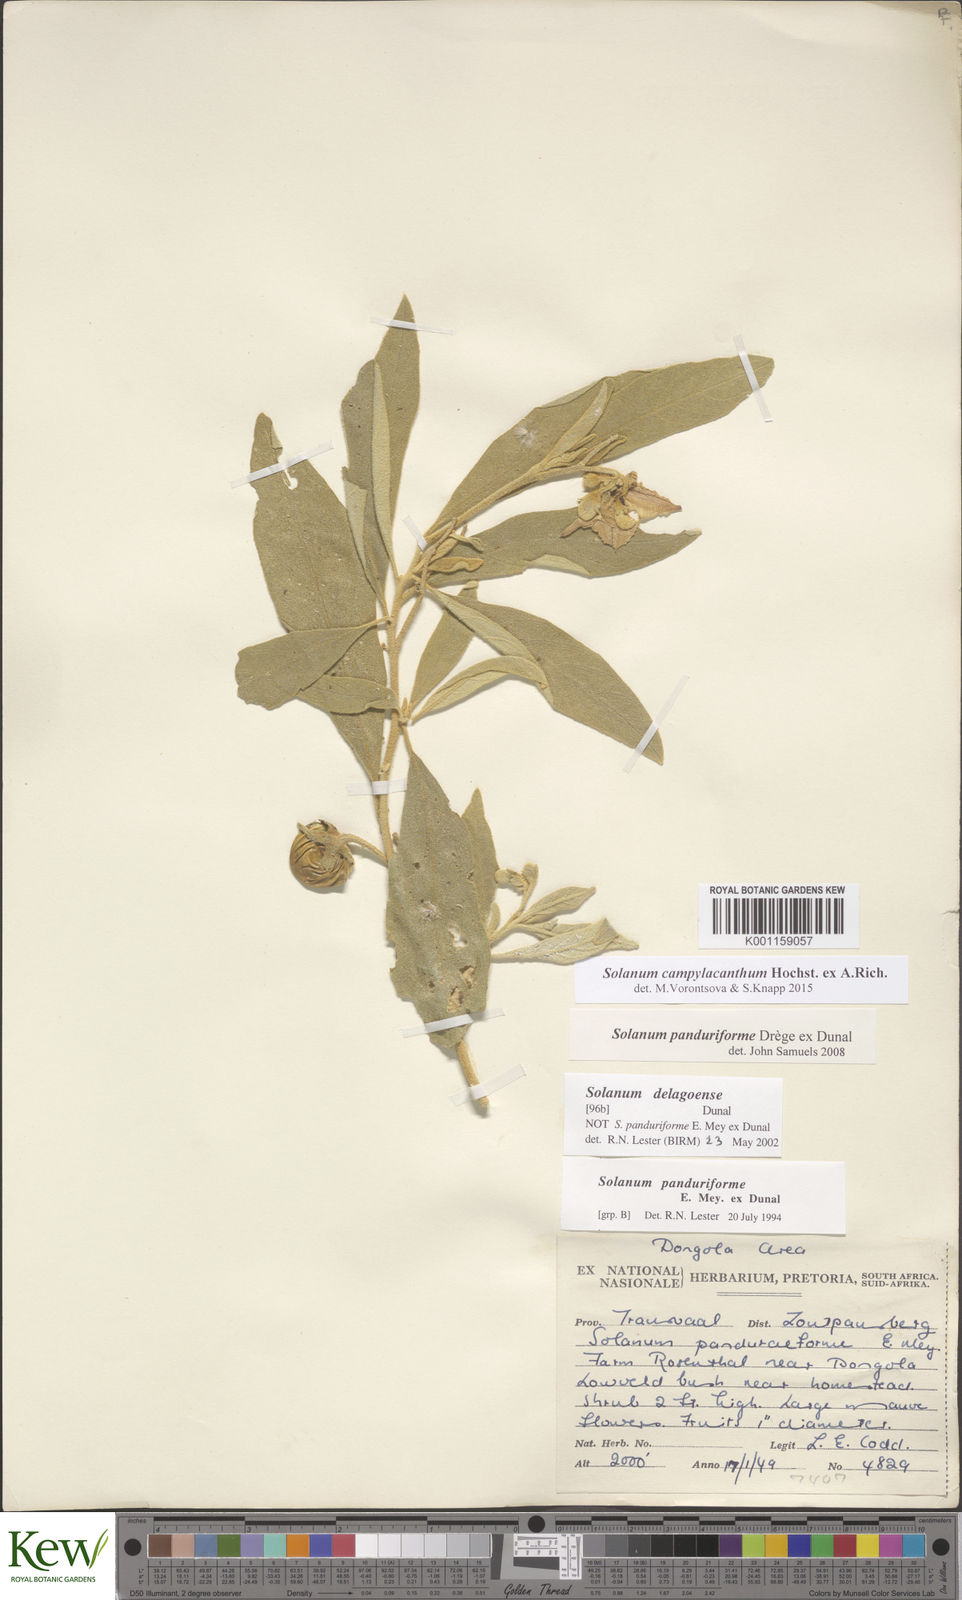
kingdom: Plantae
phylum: Tracheophyta
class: Magnoliopsida
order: Solanales
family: Solanaceae
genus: Solanum
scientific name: Solanum campylacanthum
